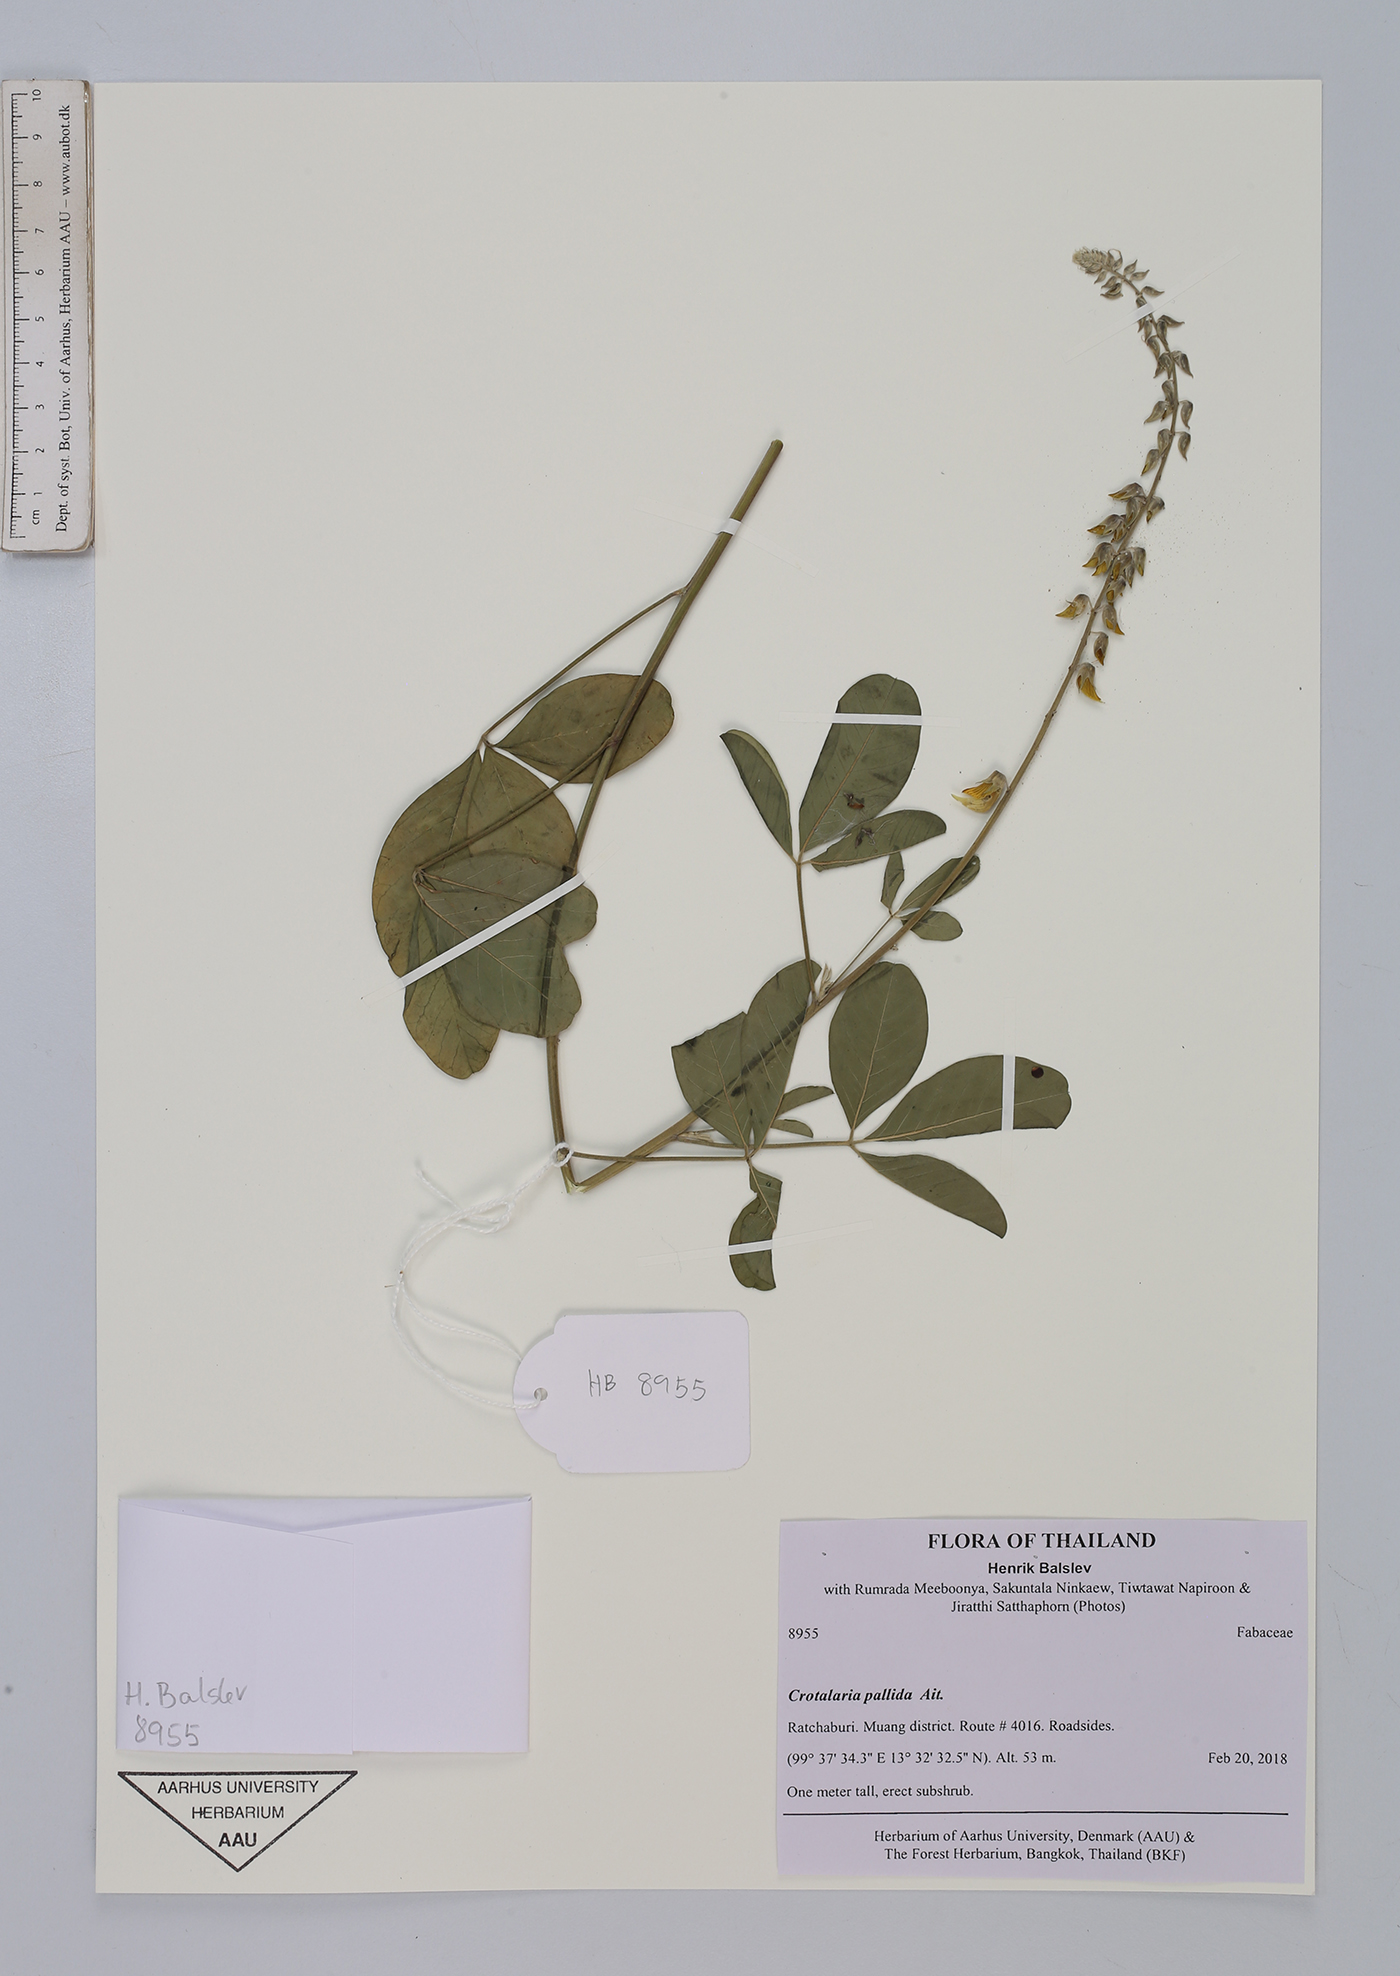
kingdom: Plantae
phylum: Tracheophyta
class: Magnoliopsida
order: Fabales
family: Fabaceae
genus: Crotalaria
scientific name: Crotalaria pallida
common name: Smooth rattlebox
